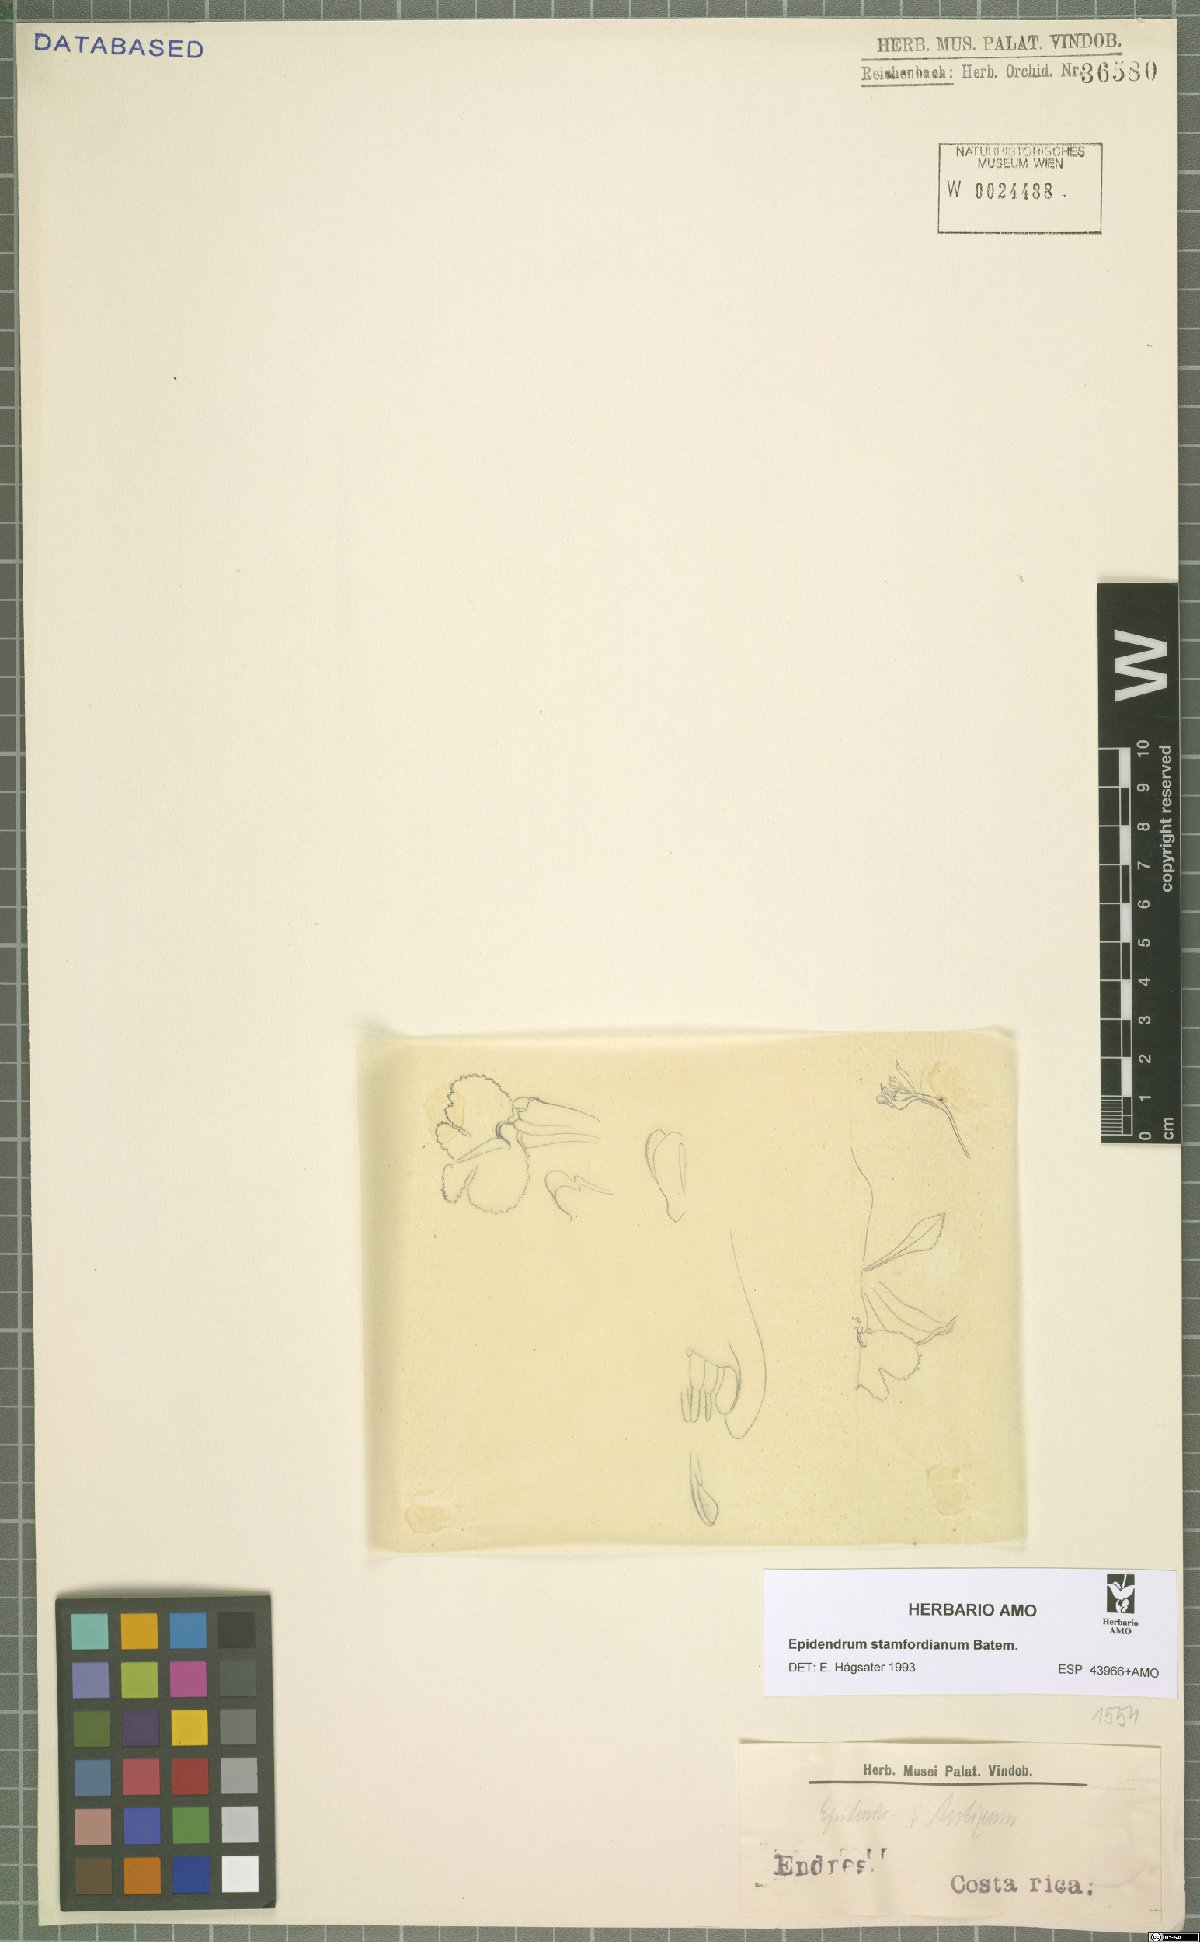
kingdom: Plantae
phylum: Tracheophyta
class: Liliopsida
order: Asparagales
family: Orchidaceae
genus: Epidendrum
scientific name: Epidendrum stamfordianum
